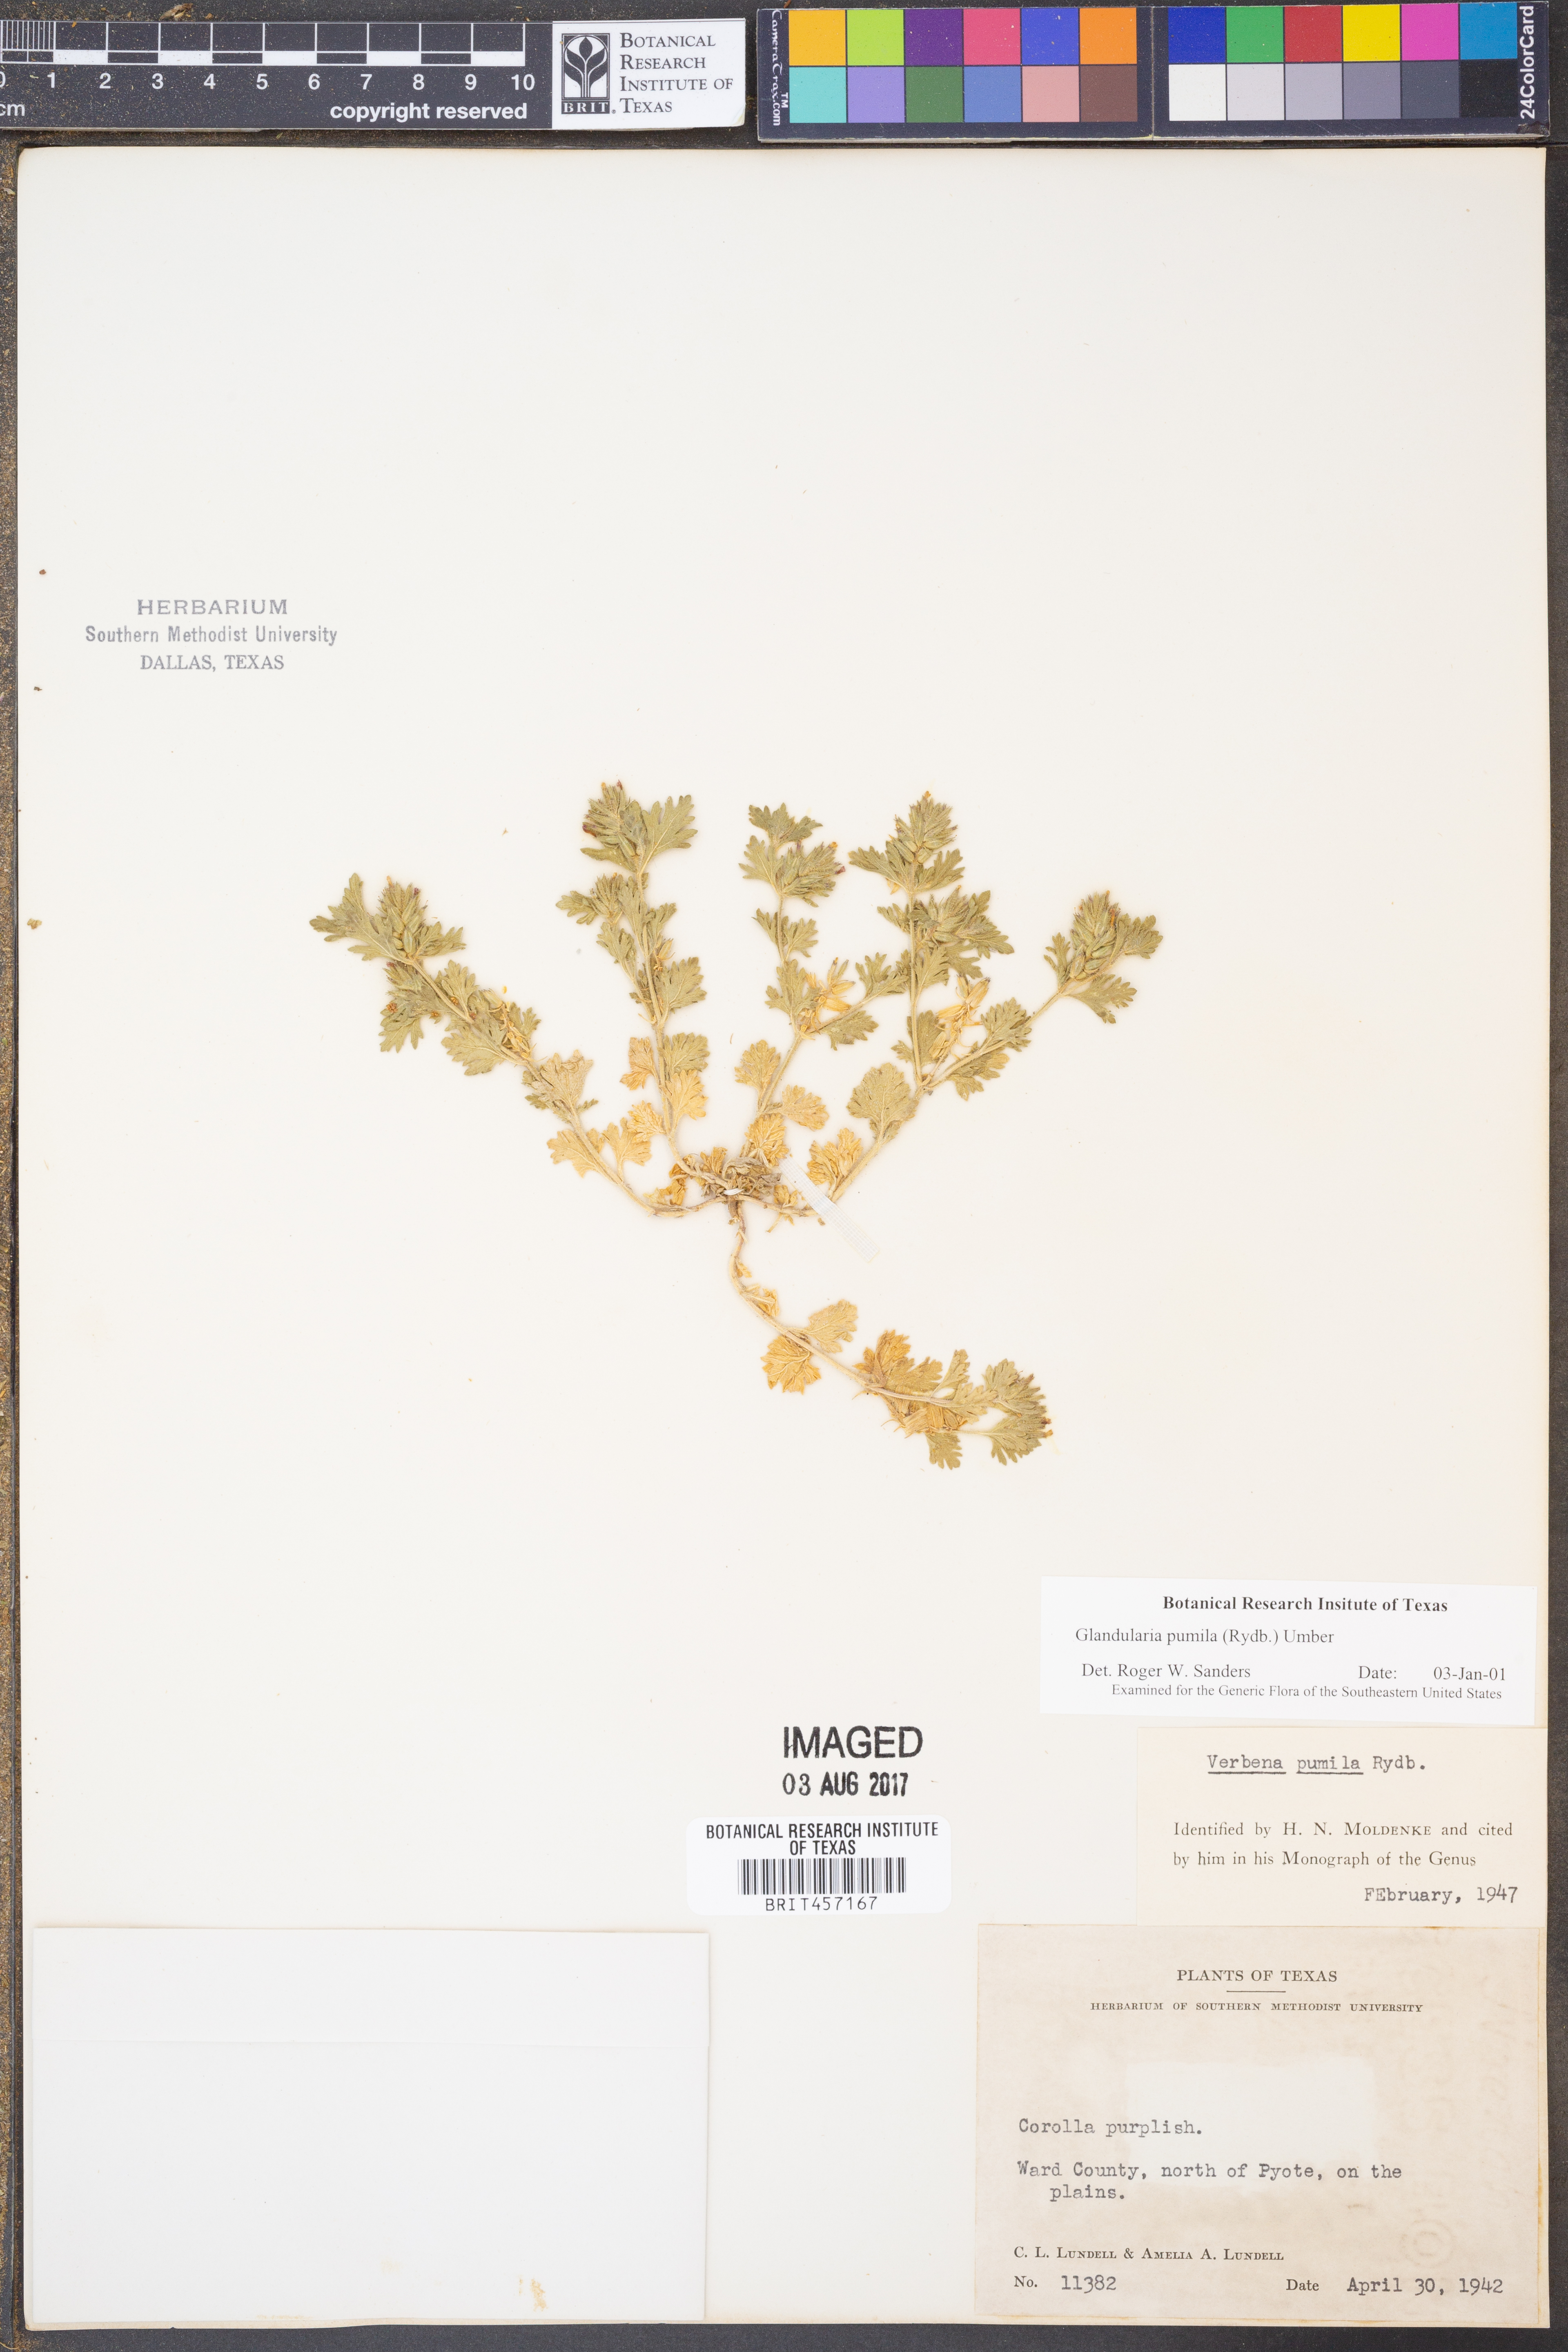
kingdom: Plantae
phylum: Tracheophyta
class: Magnoliopsida
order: Lamiales
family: Verbenaceae
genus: Verbena
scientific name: Verbena pumila
